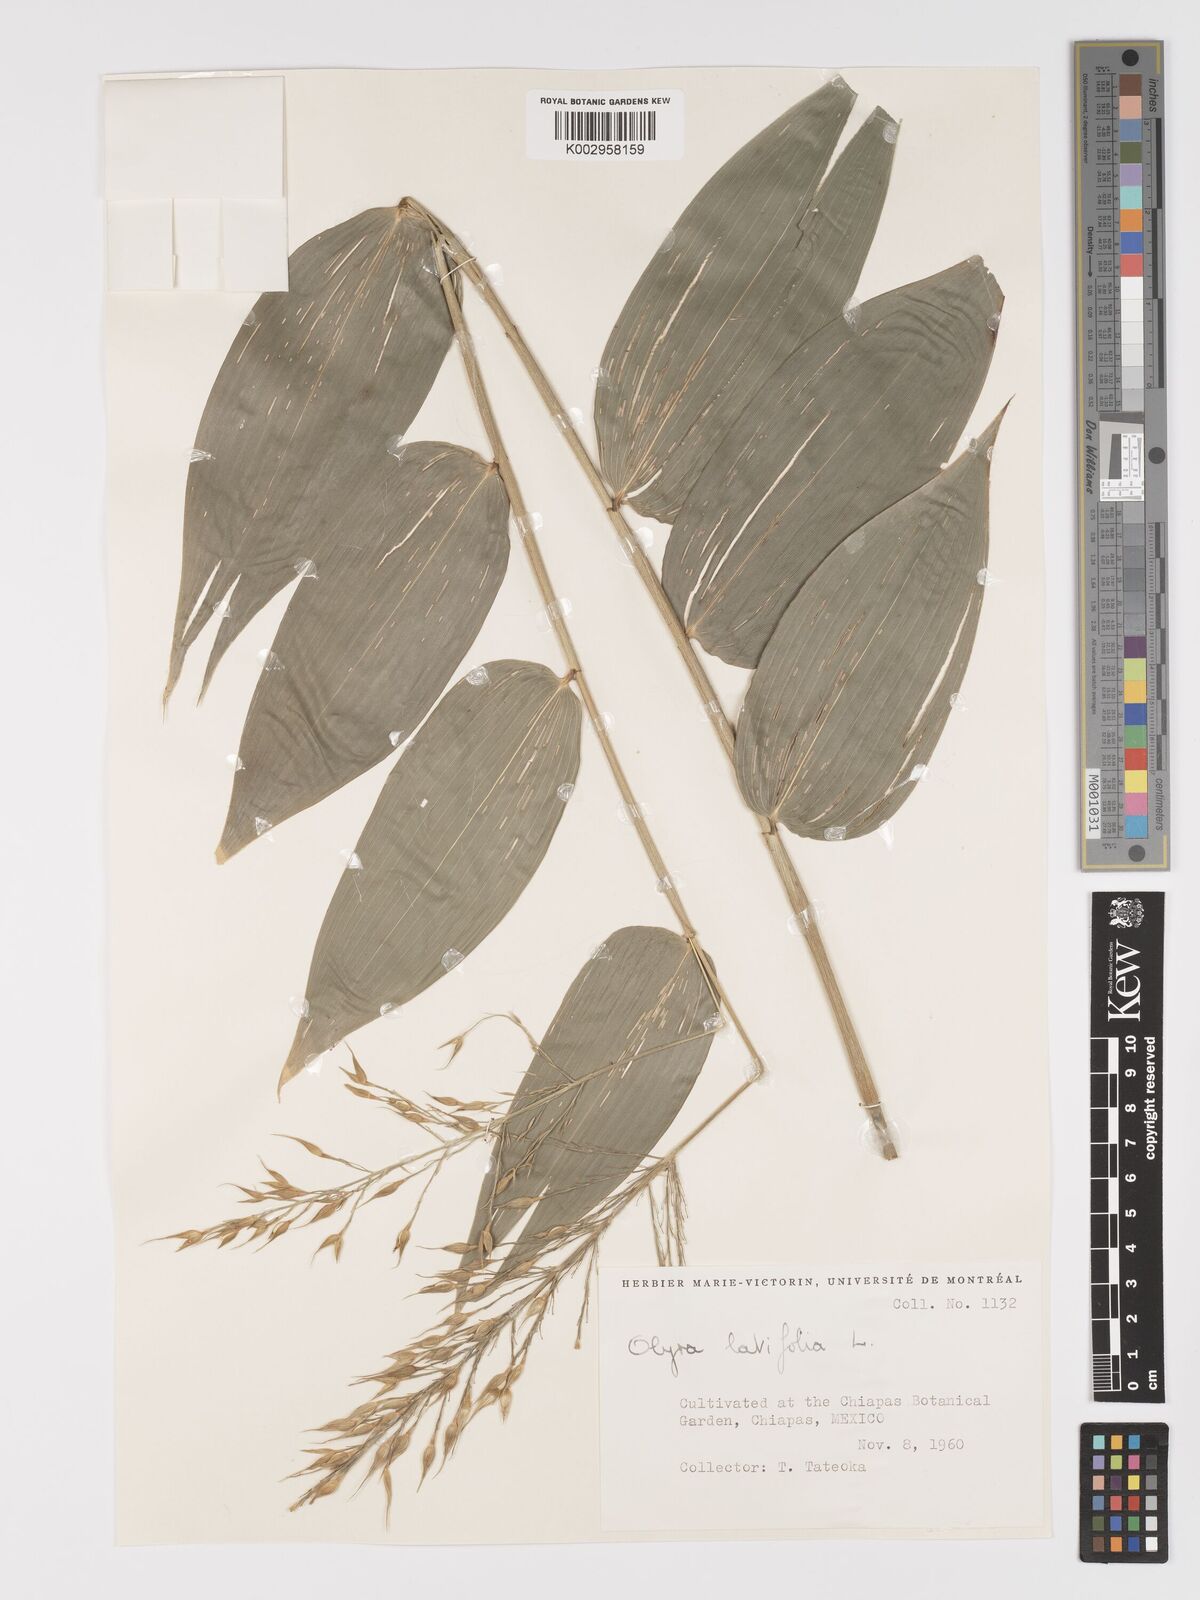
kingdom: Plantae
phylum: Tracheophyta
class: Liliopsida
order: Poales
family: Poaceae
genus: Olyra
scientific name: Olyra latifolia
